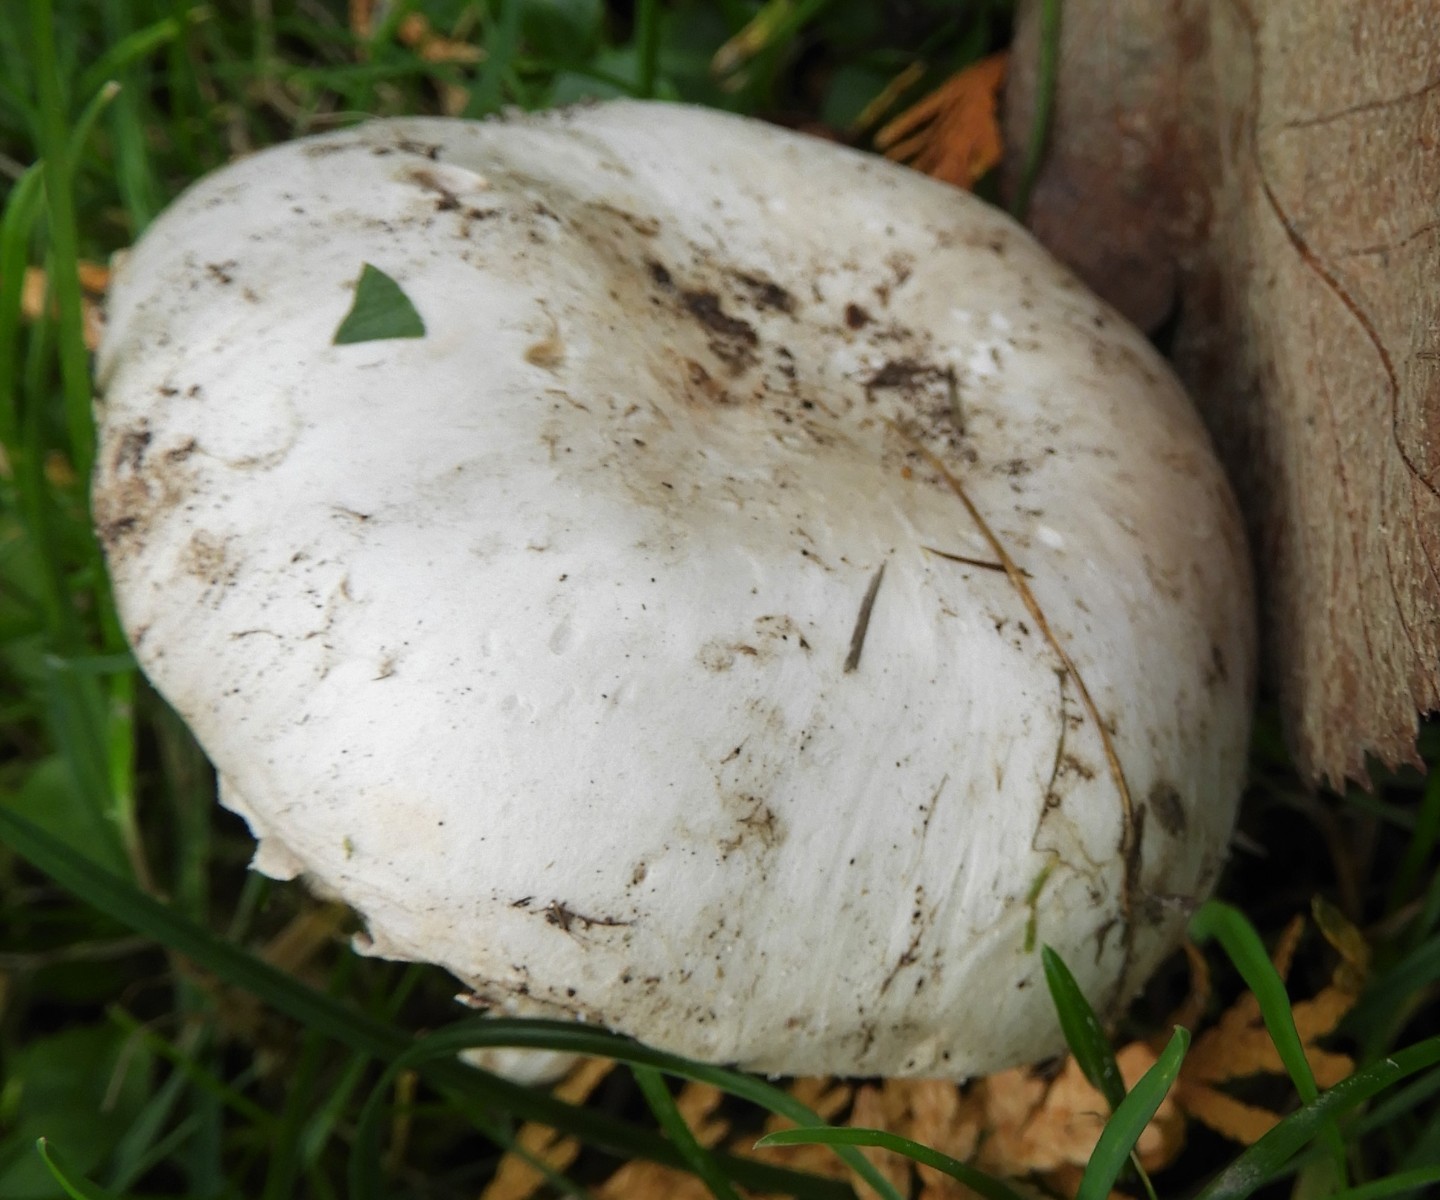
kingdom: Fungi
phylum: Basidiomycota
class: Agaricomycetes
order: Agaricales
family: Agaricaceae
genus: Agaricus
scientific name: Agaricus bitorquis
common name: vej-champignon
